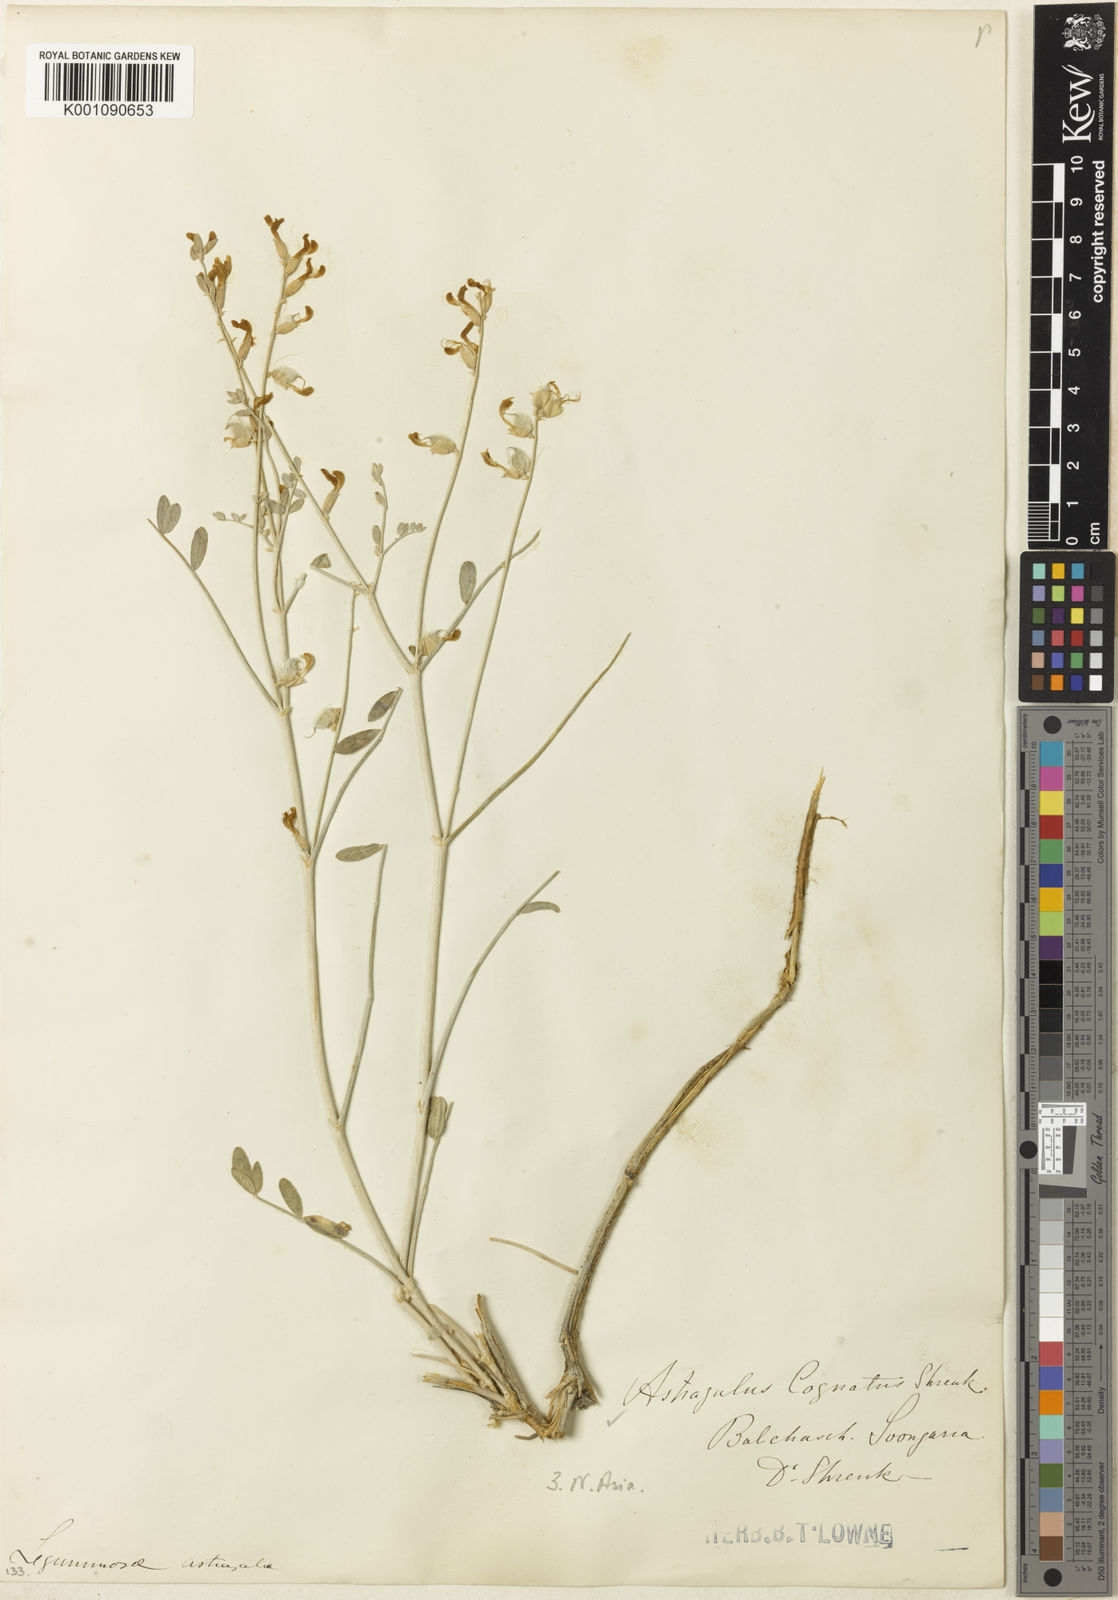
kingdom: Plantae
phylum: Tracheophyta
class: Magnoliopsida
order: Fabales
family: Fabaceae
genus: Astragalus
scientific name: Astragalus
